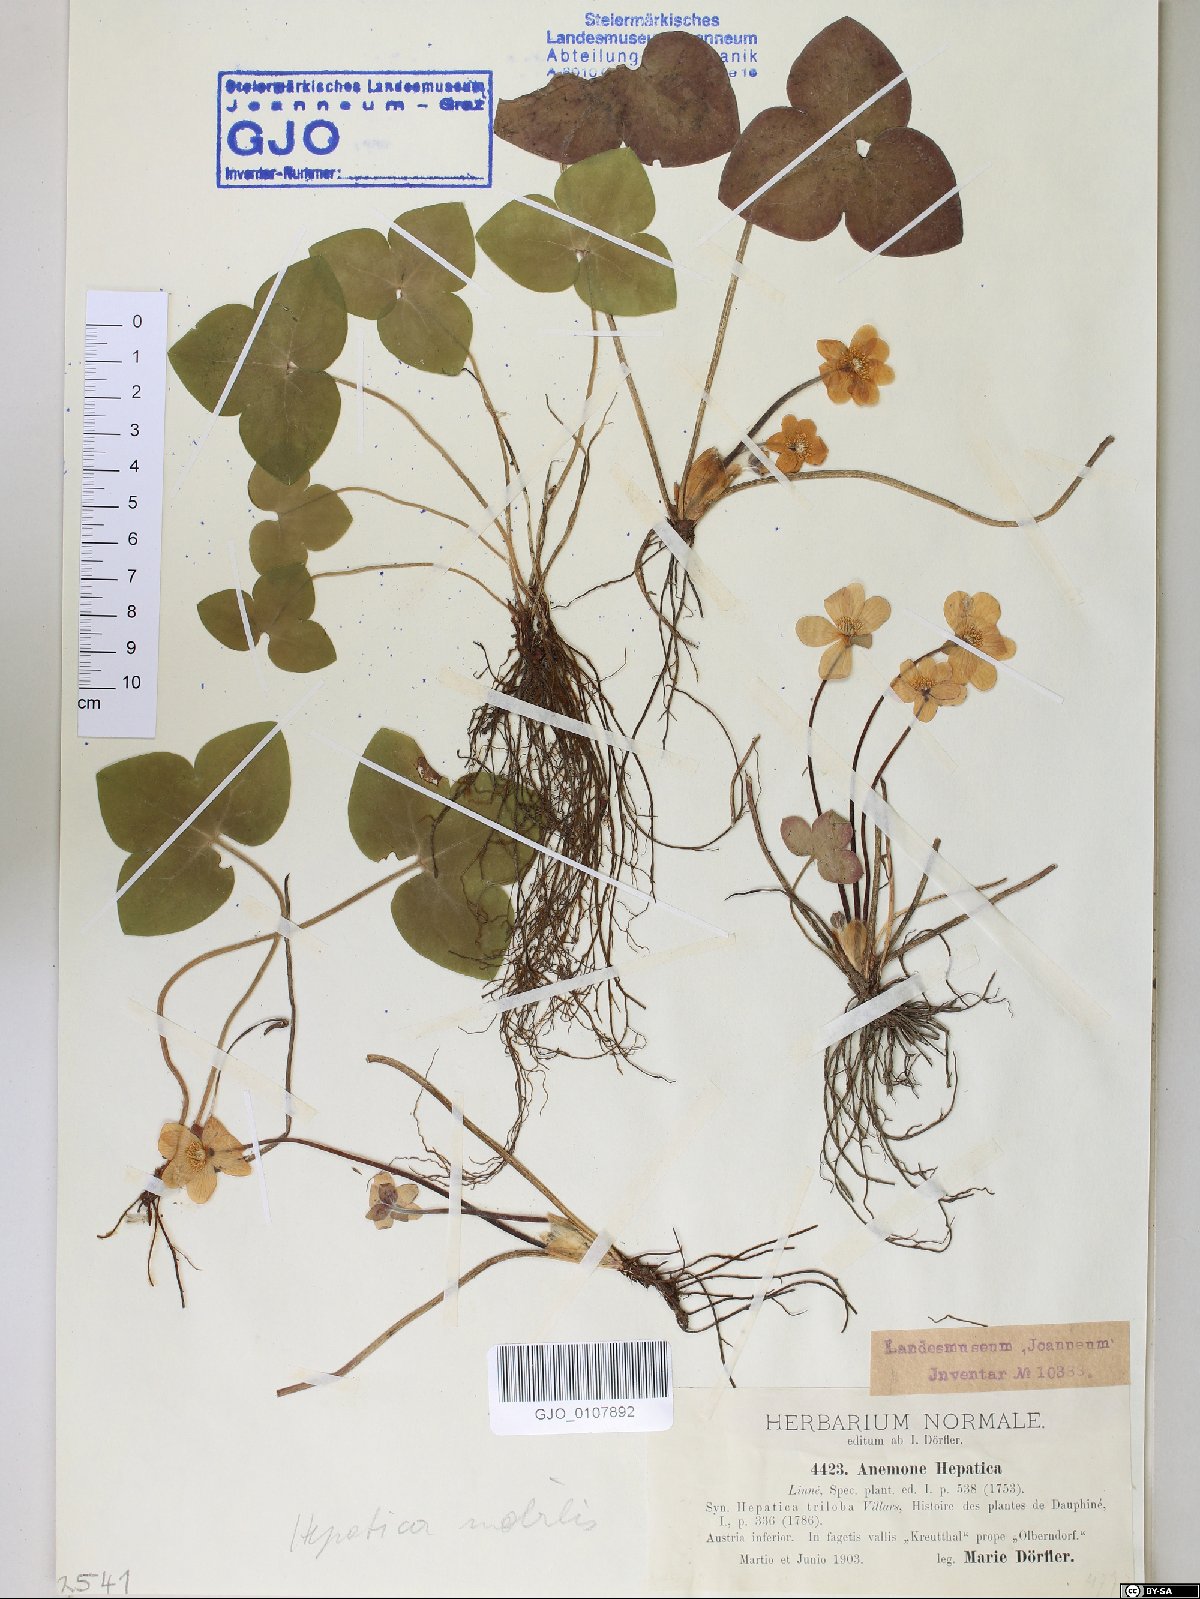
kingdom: Plantae
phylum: Tracheophyta
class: Magnoliopsida
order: Ranunculales
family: Ranunculaceae
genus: Hepatica
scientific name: Hepatica nobilis
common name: Liverleaf
